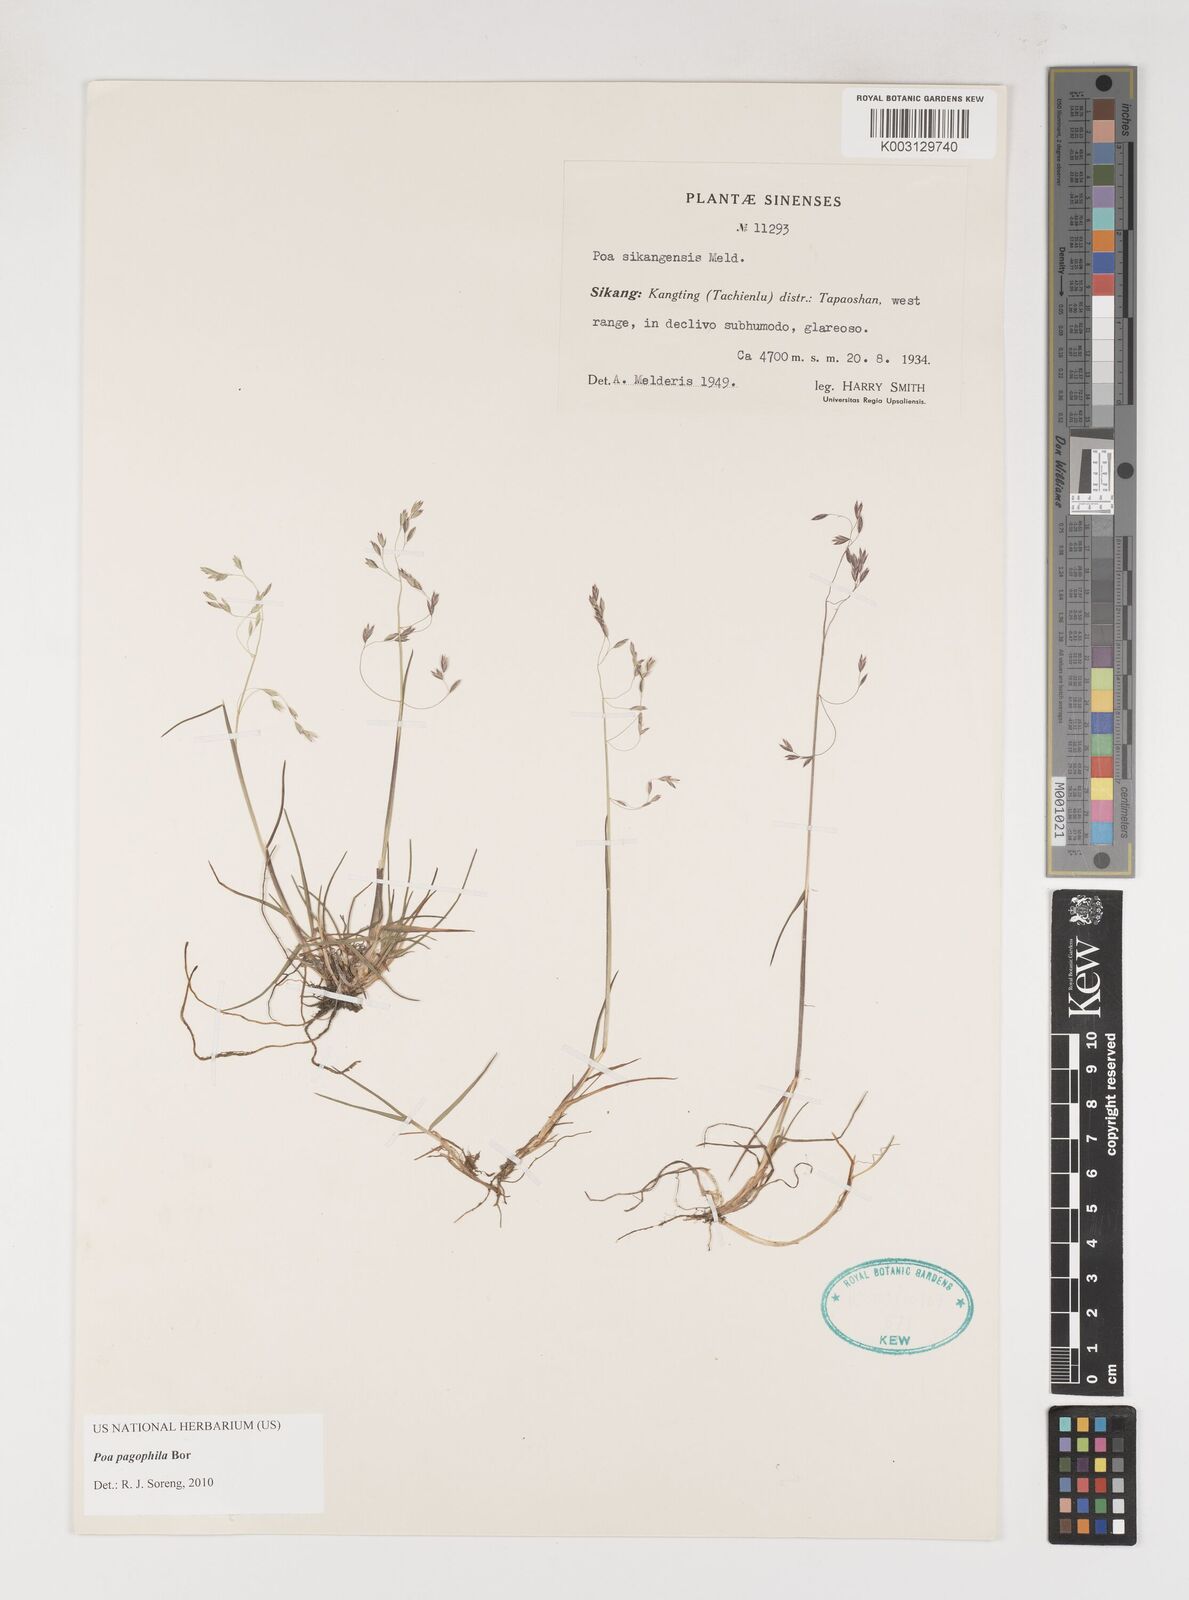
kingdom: Plantae
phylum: Tracheophyta
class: Liliopsida
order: Poales
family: Poaceae
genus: Poa
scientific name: Poa pagophila
